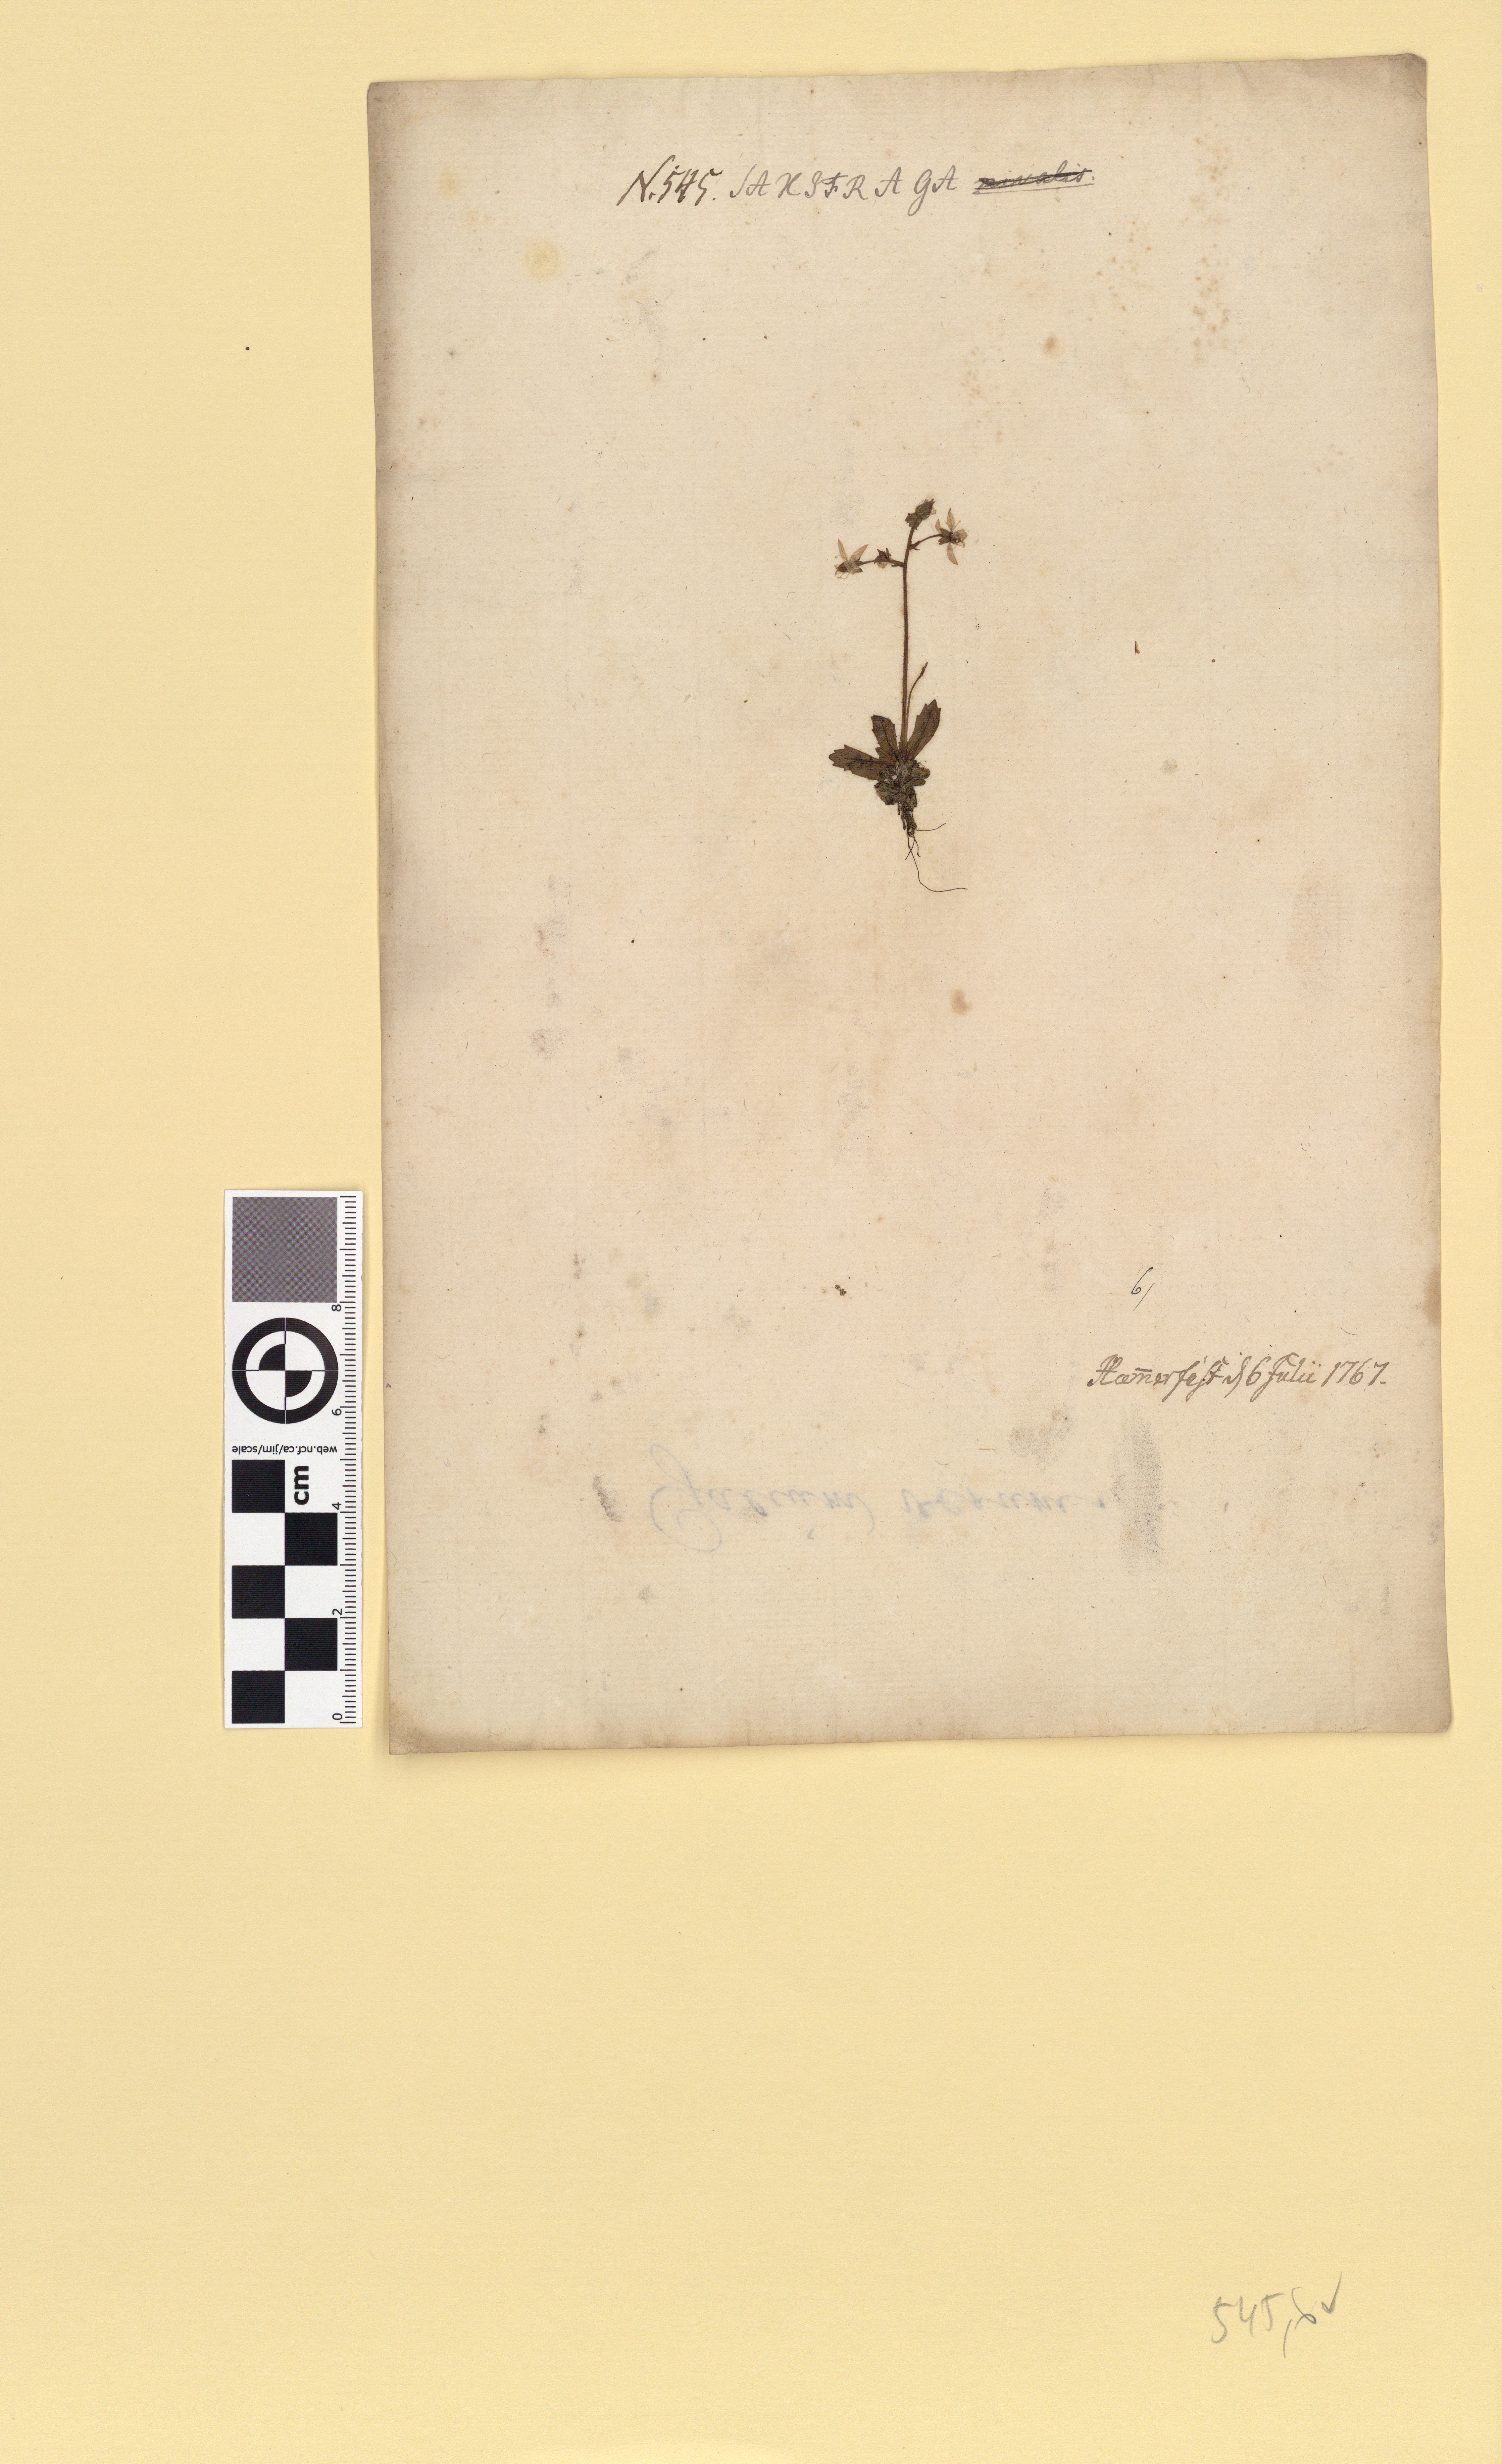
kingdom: Plantae
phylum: Tracheophyta
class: Magnoliopsida
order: Saxifragales
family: Saxifragaceae
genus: Micranthes
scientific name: Micranthes stellaris
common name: Starry saxifrage
